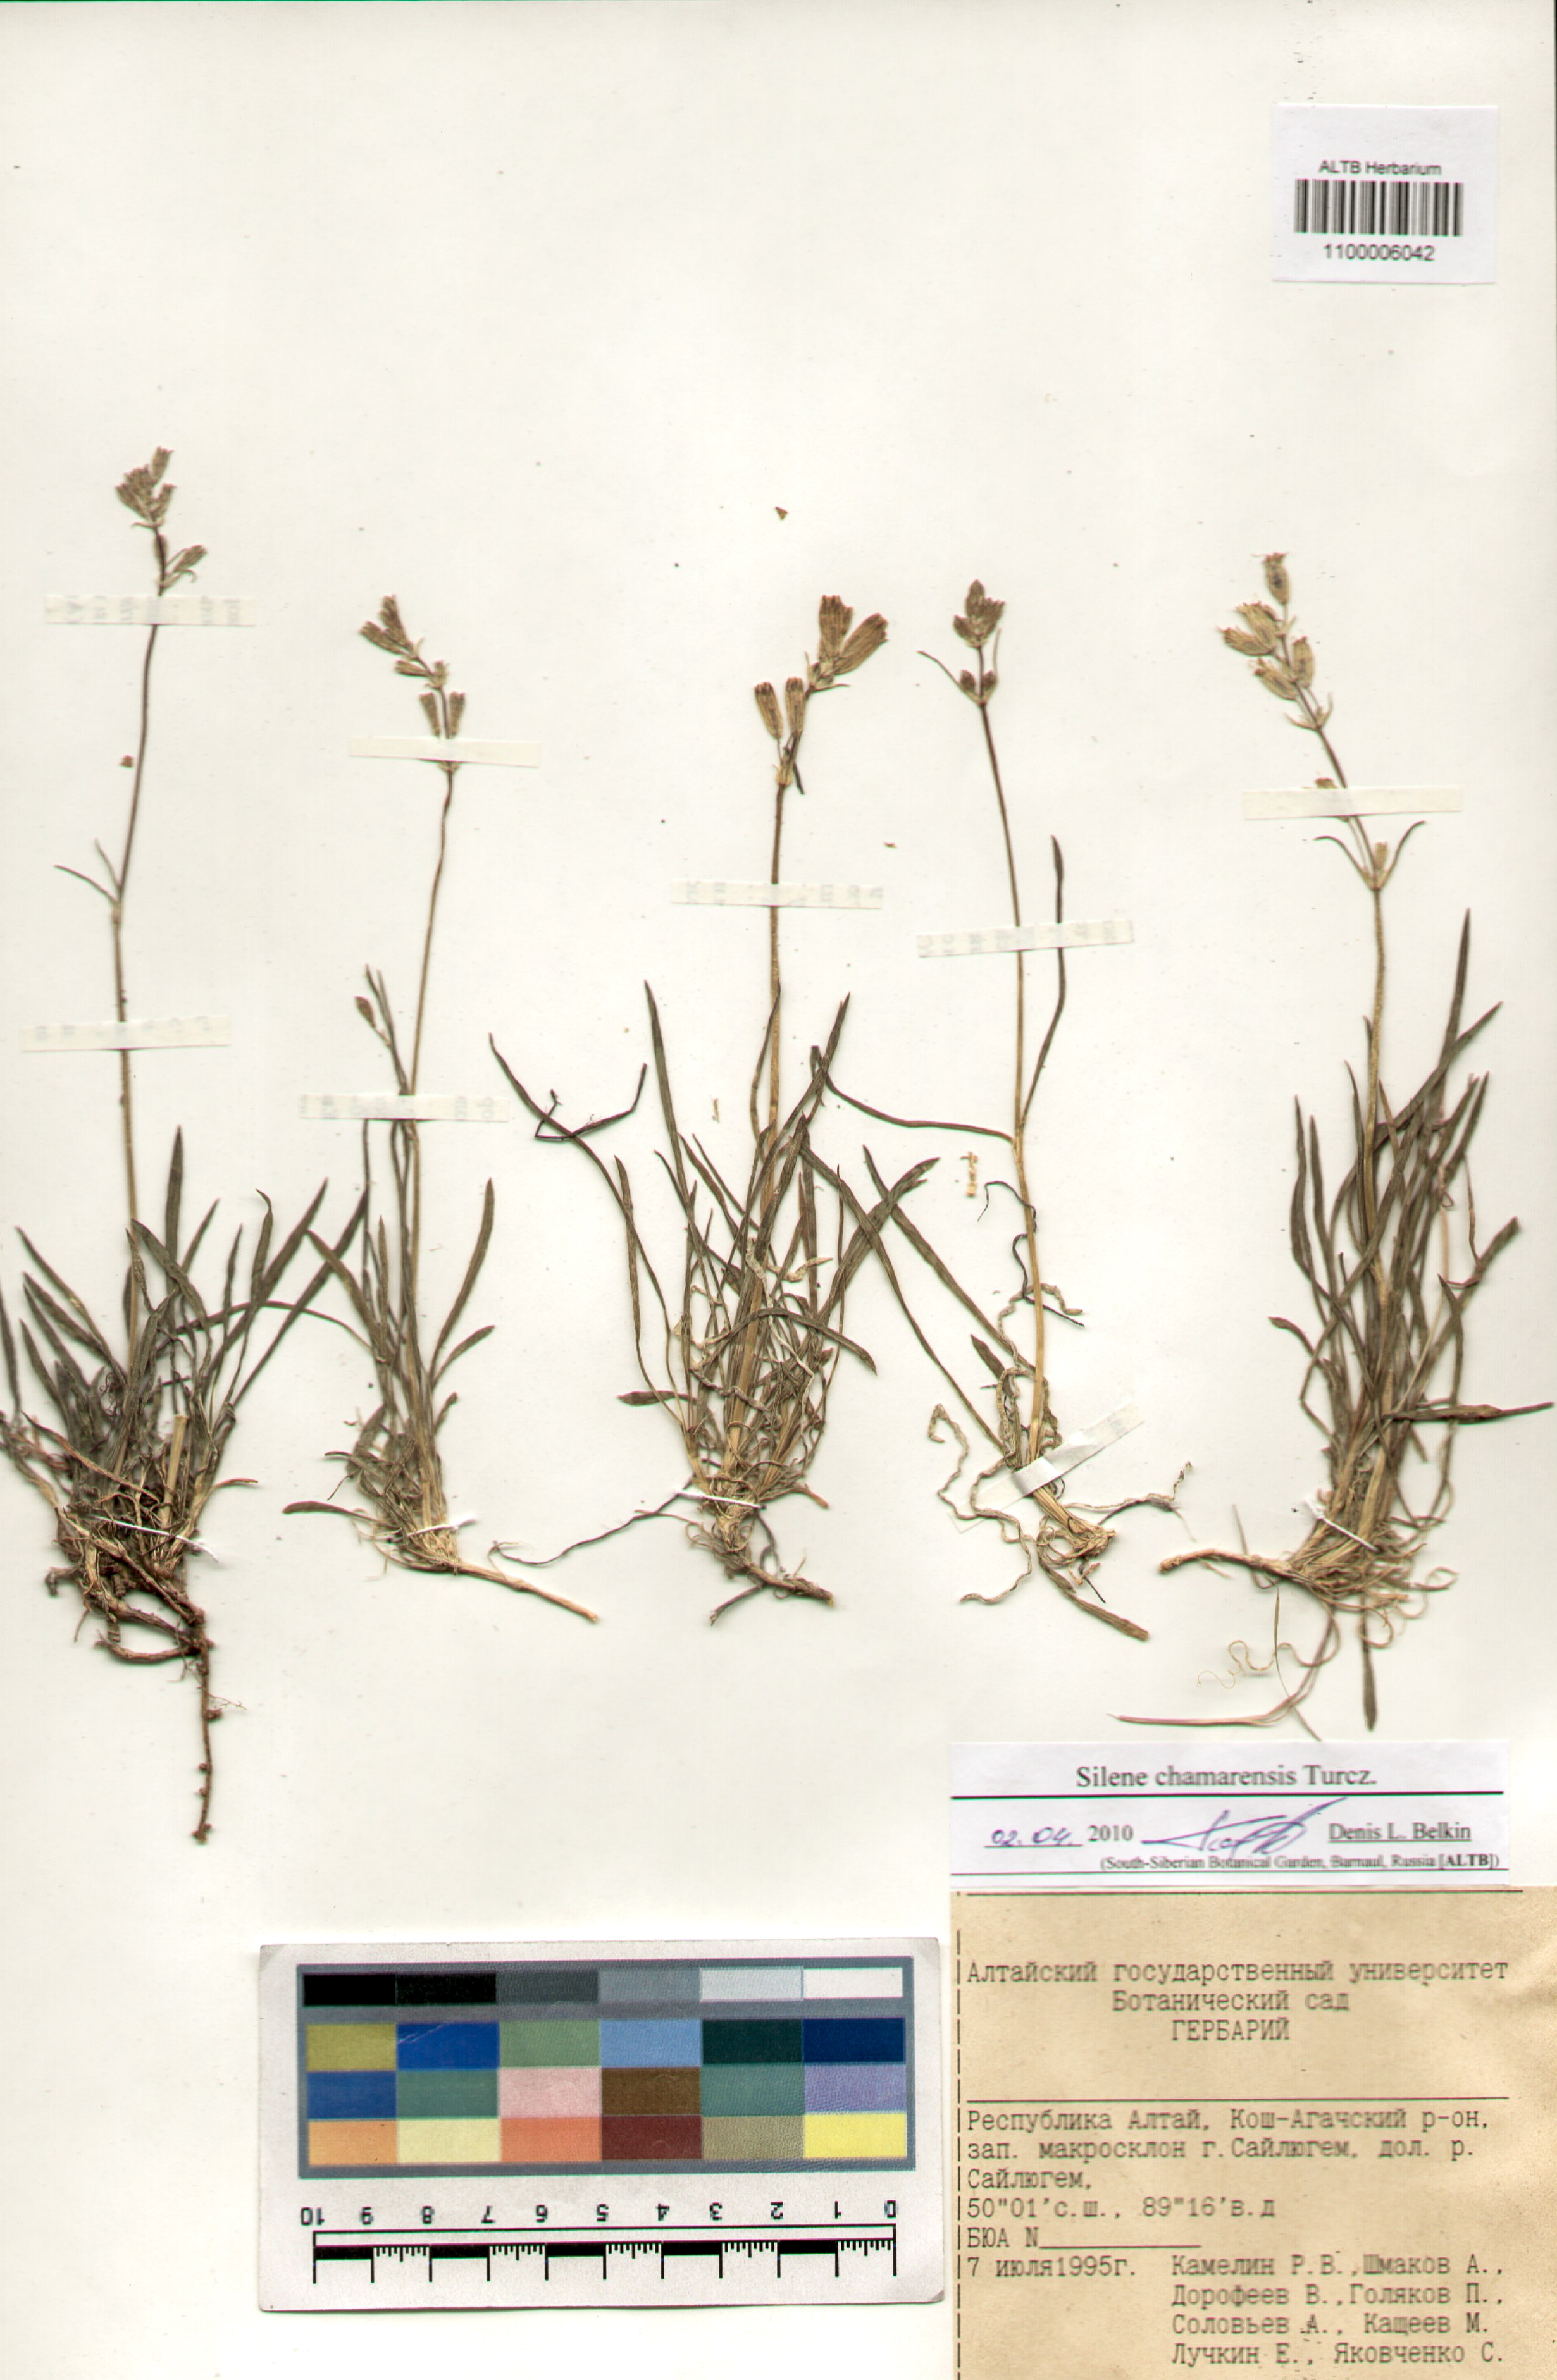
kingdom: Plantae
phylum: Tracheophyta
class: Magnoliopsida
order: Caryophyllales
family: Caryophyllaceae
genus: Silene
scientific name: Silene chamarensis
